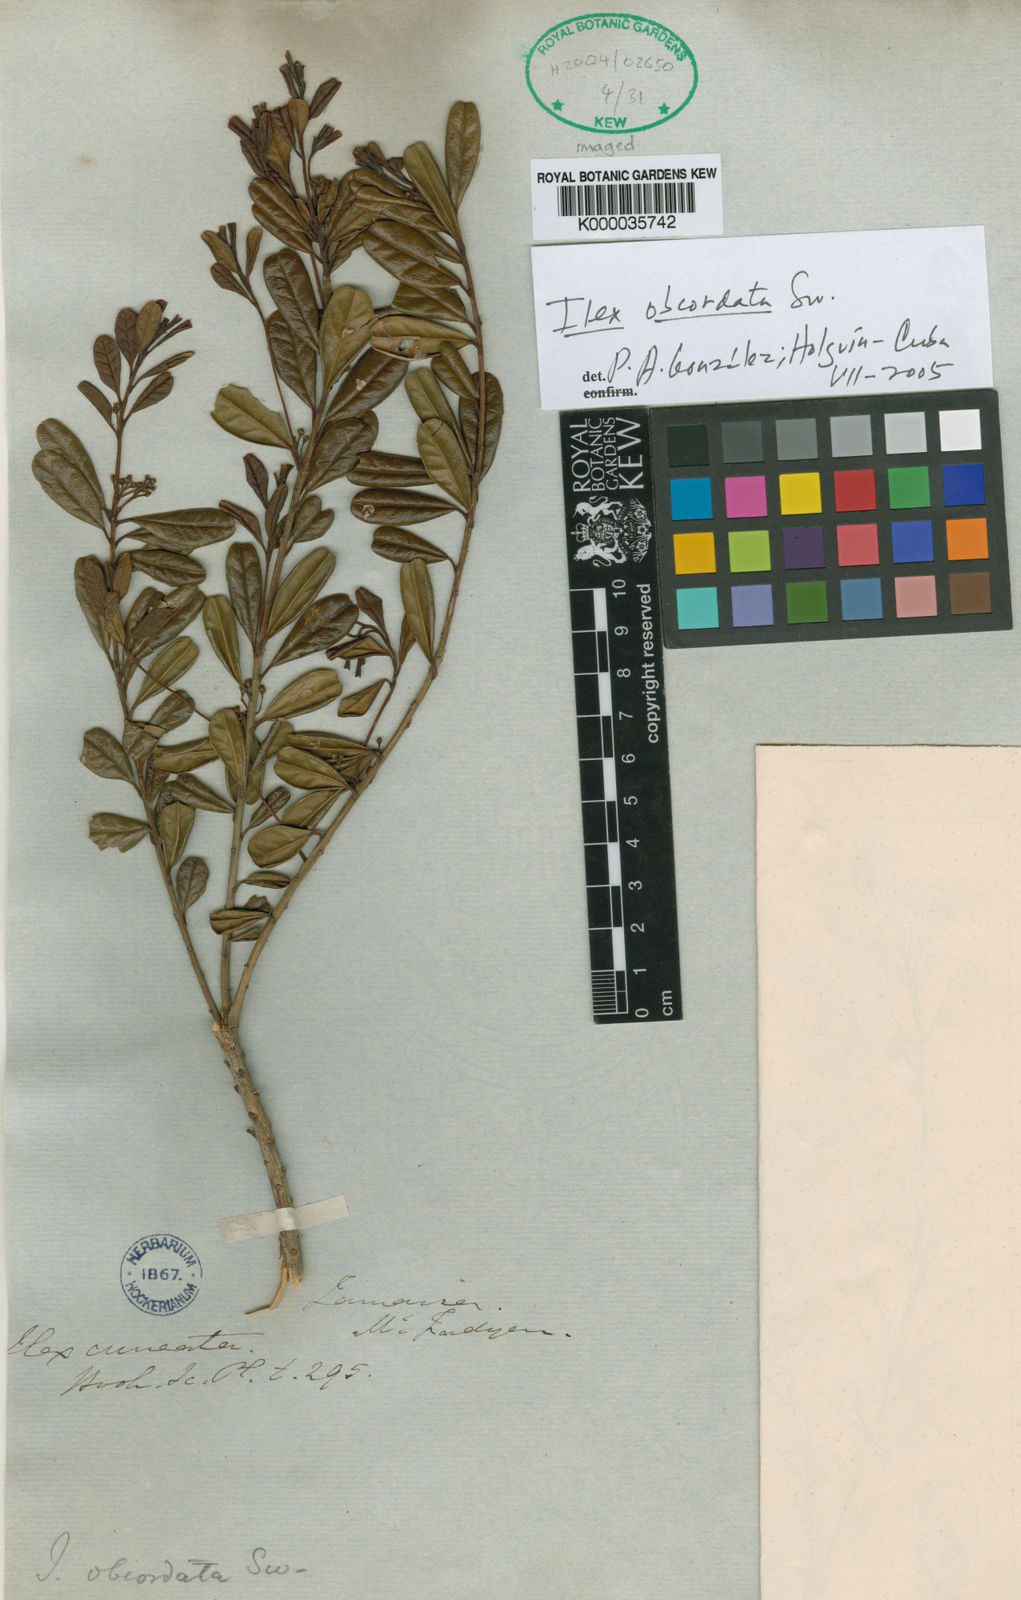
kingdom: Plantae
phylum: Tracheophyta
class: Magnoliopsida
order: Aquifoliales
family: Aquifoliaceae
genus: Ilex
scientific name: Ilex obcordata
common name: Sintenis' holly
